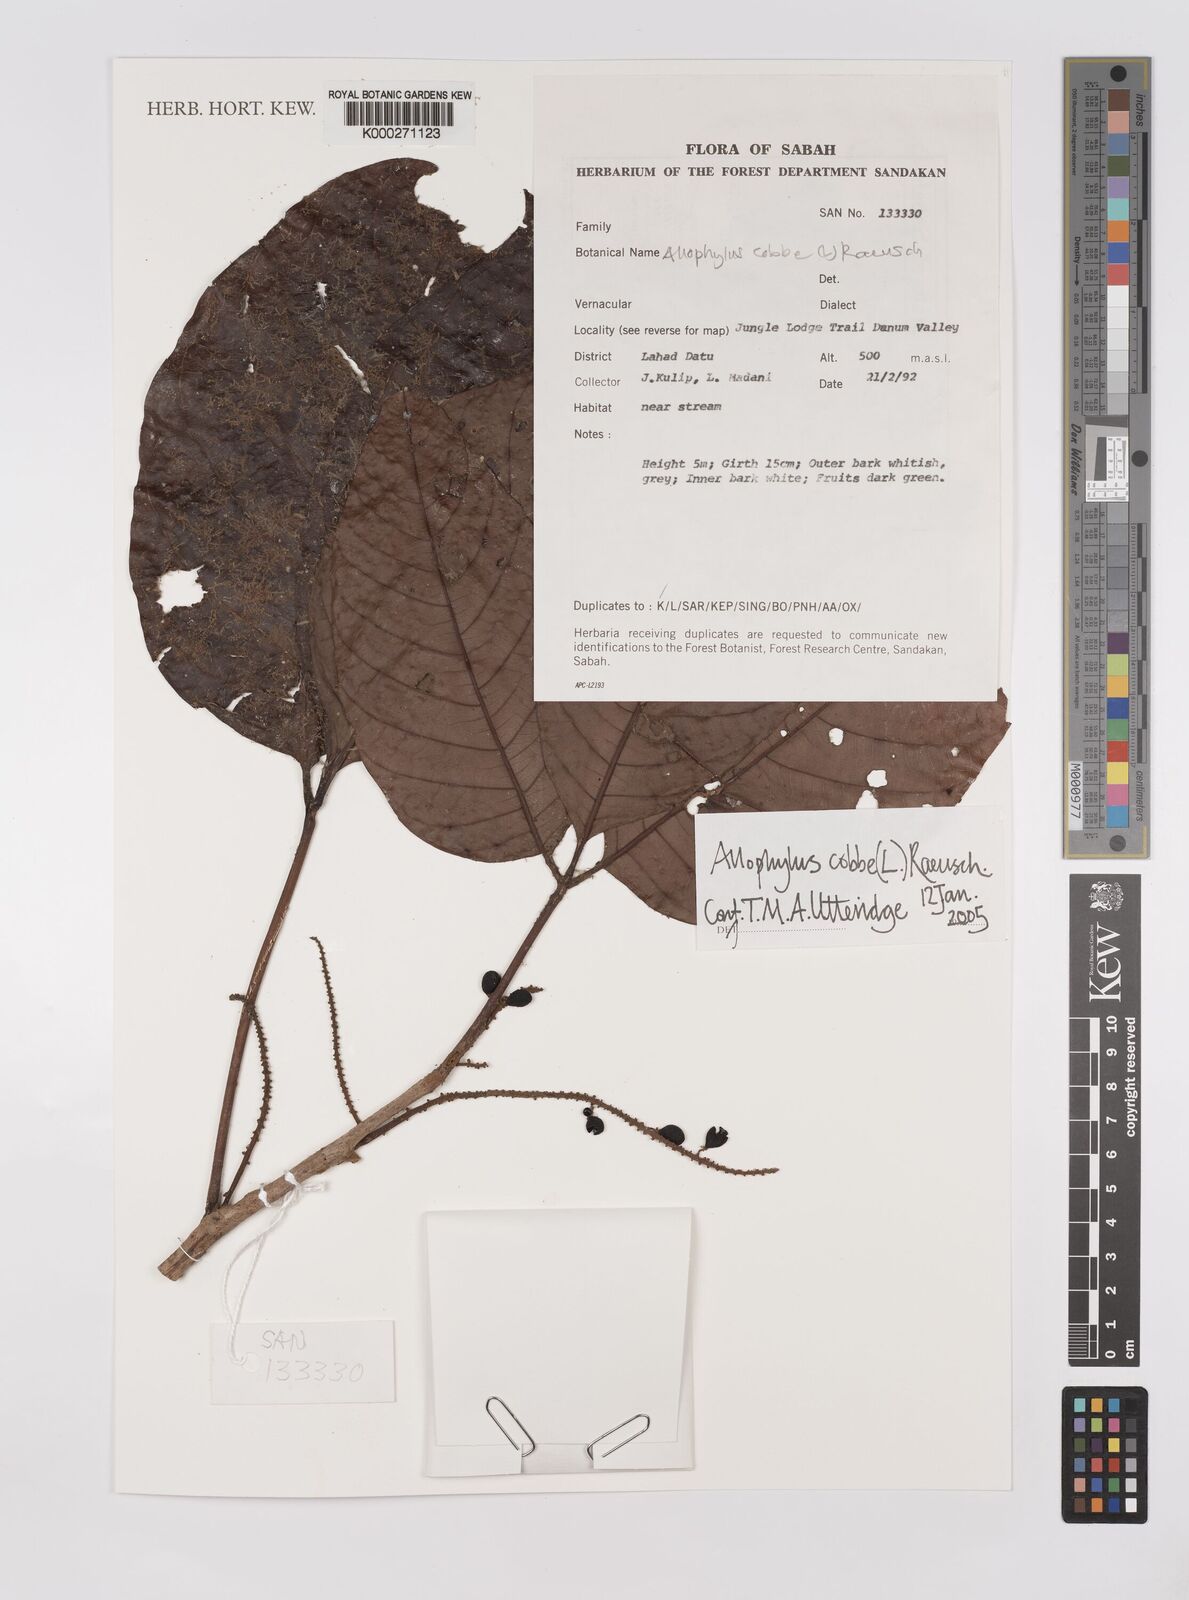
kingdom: Plantae
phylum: Tracheophyta
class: Magnoliopsida
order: Sapindales
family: Sapindaceae
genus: Allophylus
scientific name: Allophylus
